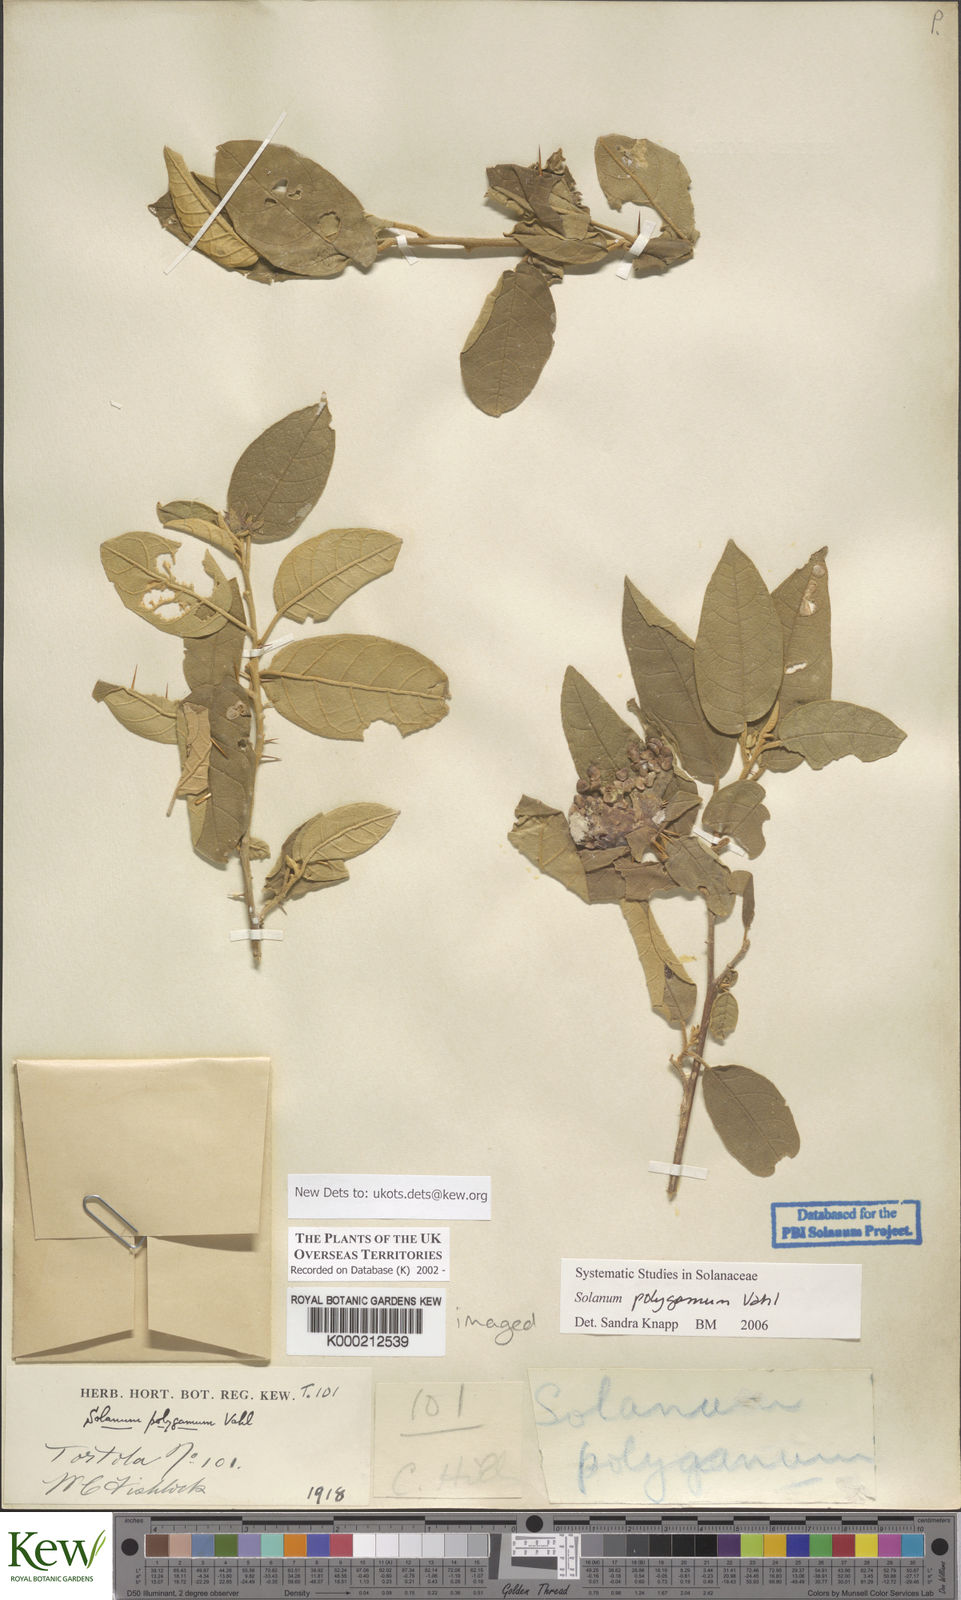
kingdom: Plantae
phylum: Tracheophyta
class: Magnoliopsida
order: Solanales
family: Solanaceae
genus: Solanum
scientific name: Solanum polygamum
